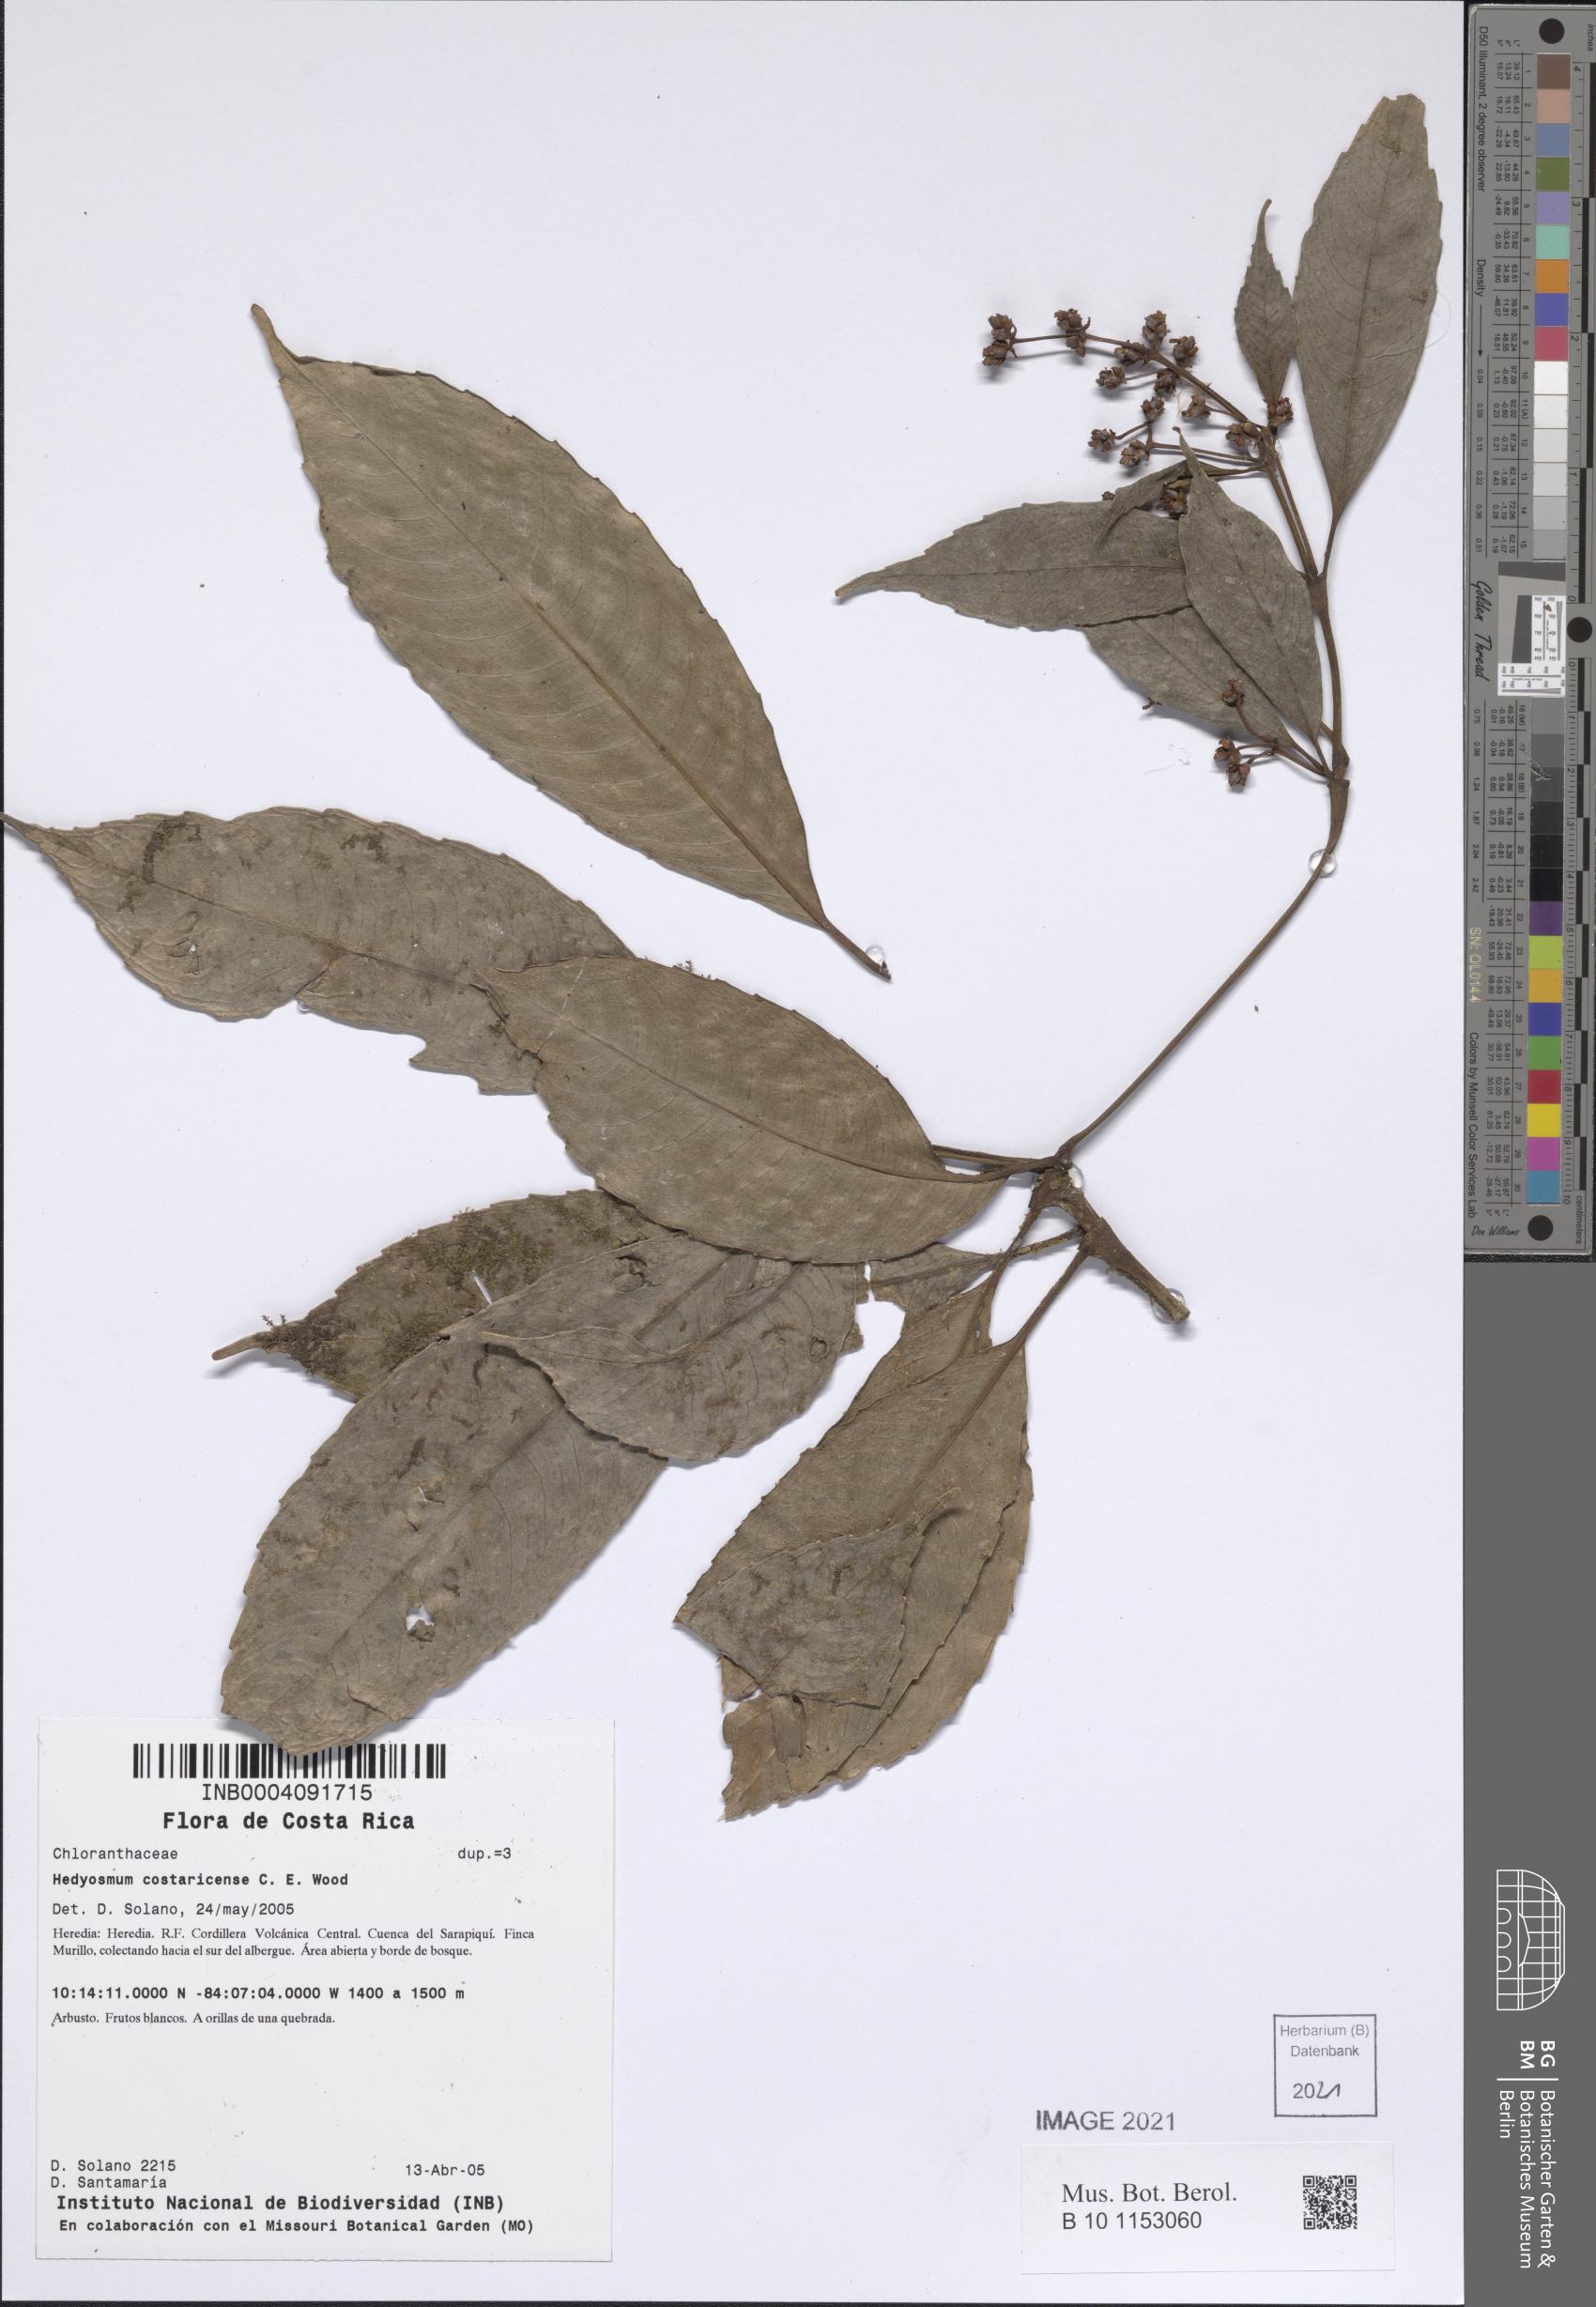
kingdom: Plantae
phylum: Tracheophyta
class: Magnoliopsida
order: Chloranthales
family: Chloranthaceae
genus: Hedyosmum
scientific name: Hedyosmum costaricense
